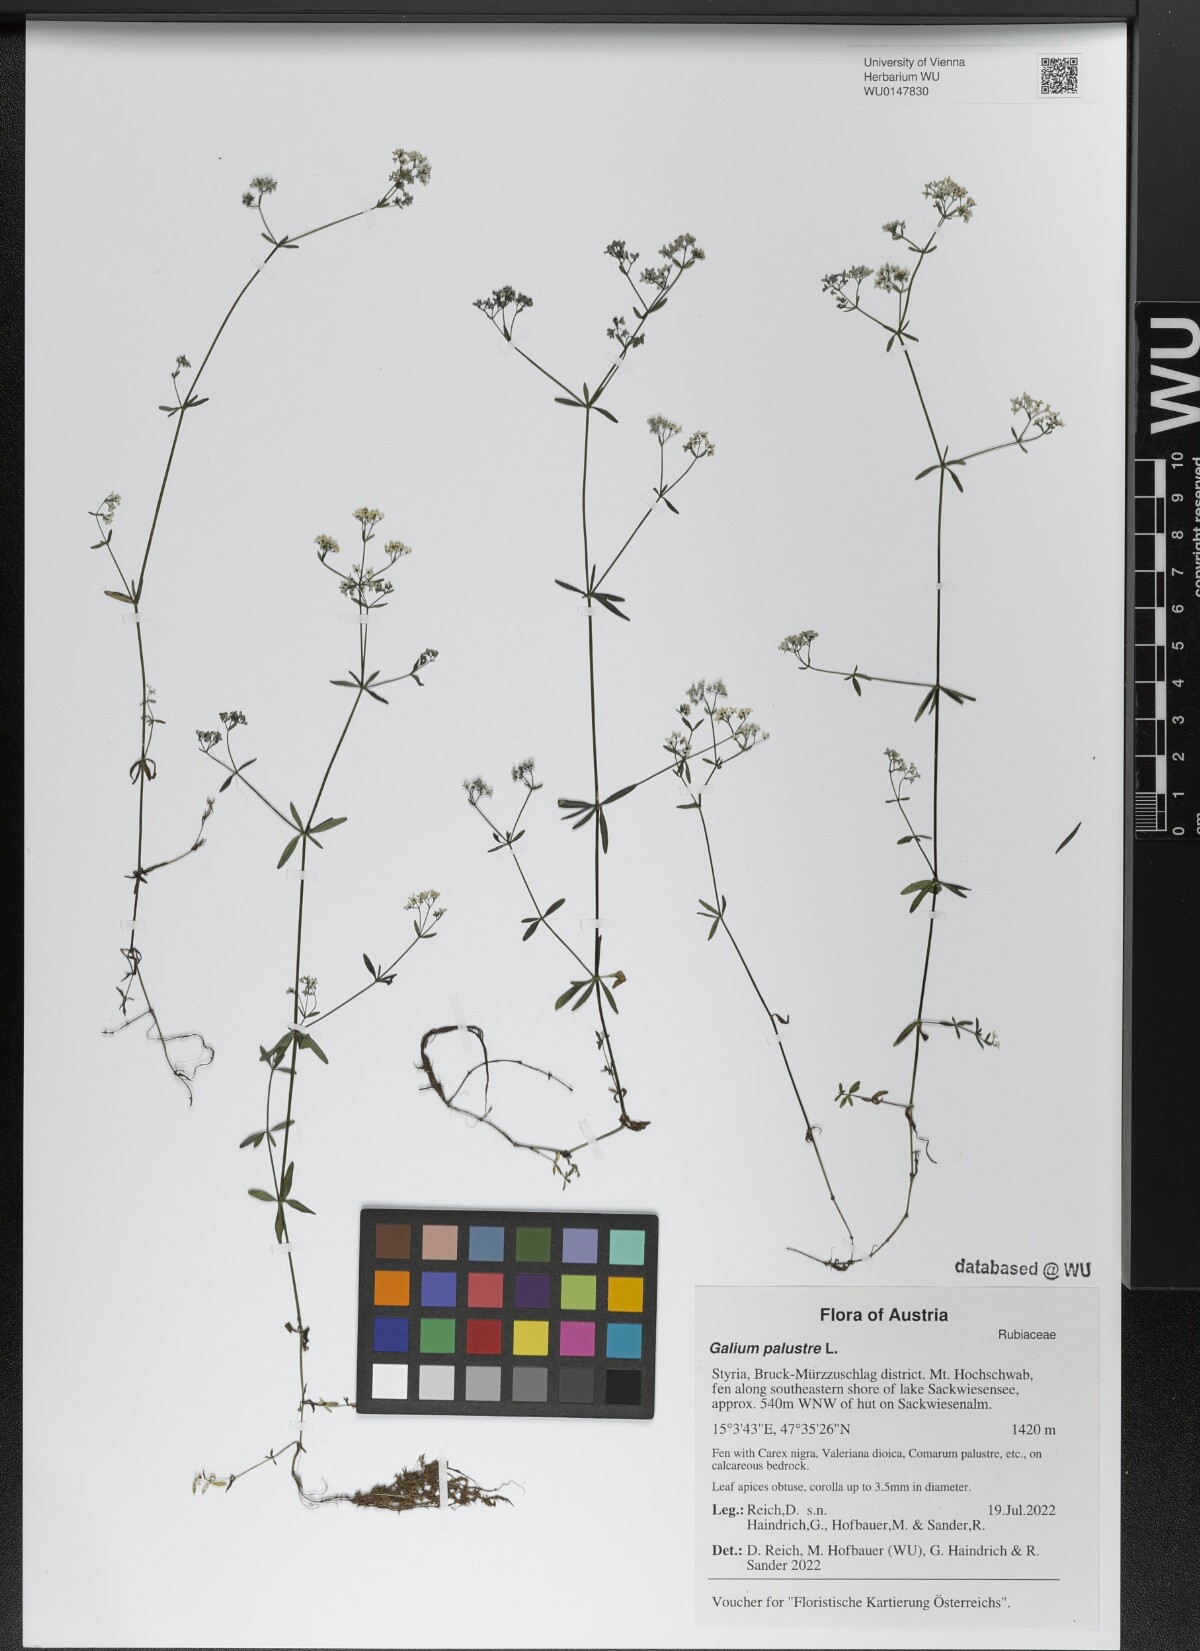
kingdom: Plantae
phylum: Tracheophyta
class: Magnoliopsida
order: Gentianales
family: Rubiaceae
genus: Galium
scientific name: Galium palustre
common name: Common marsh-bedstraw
